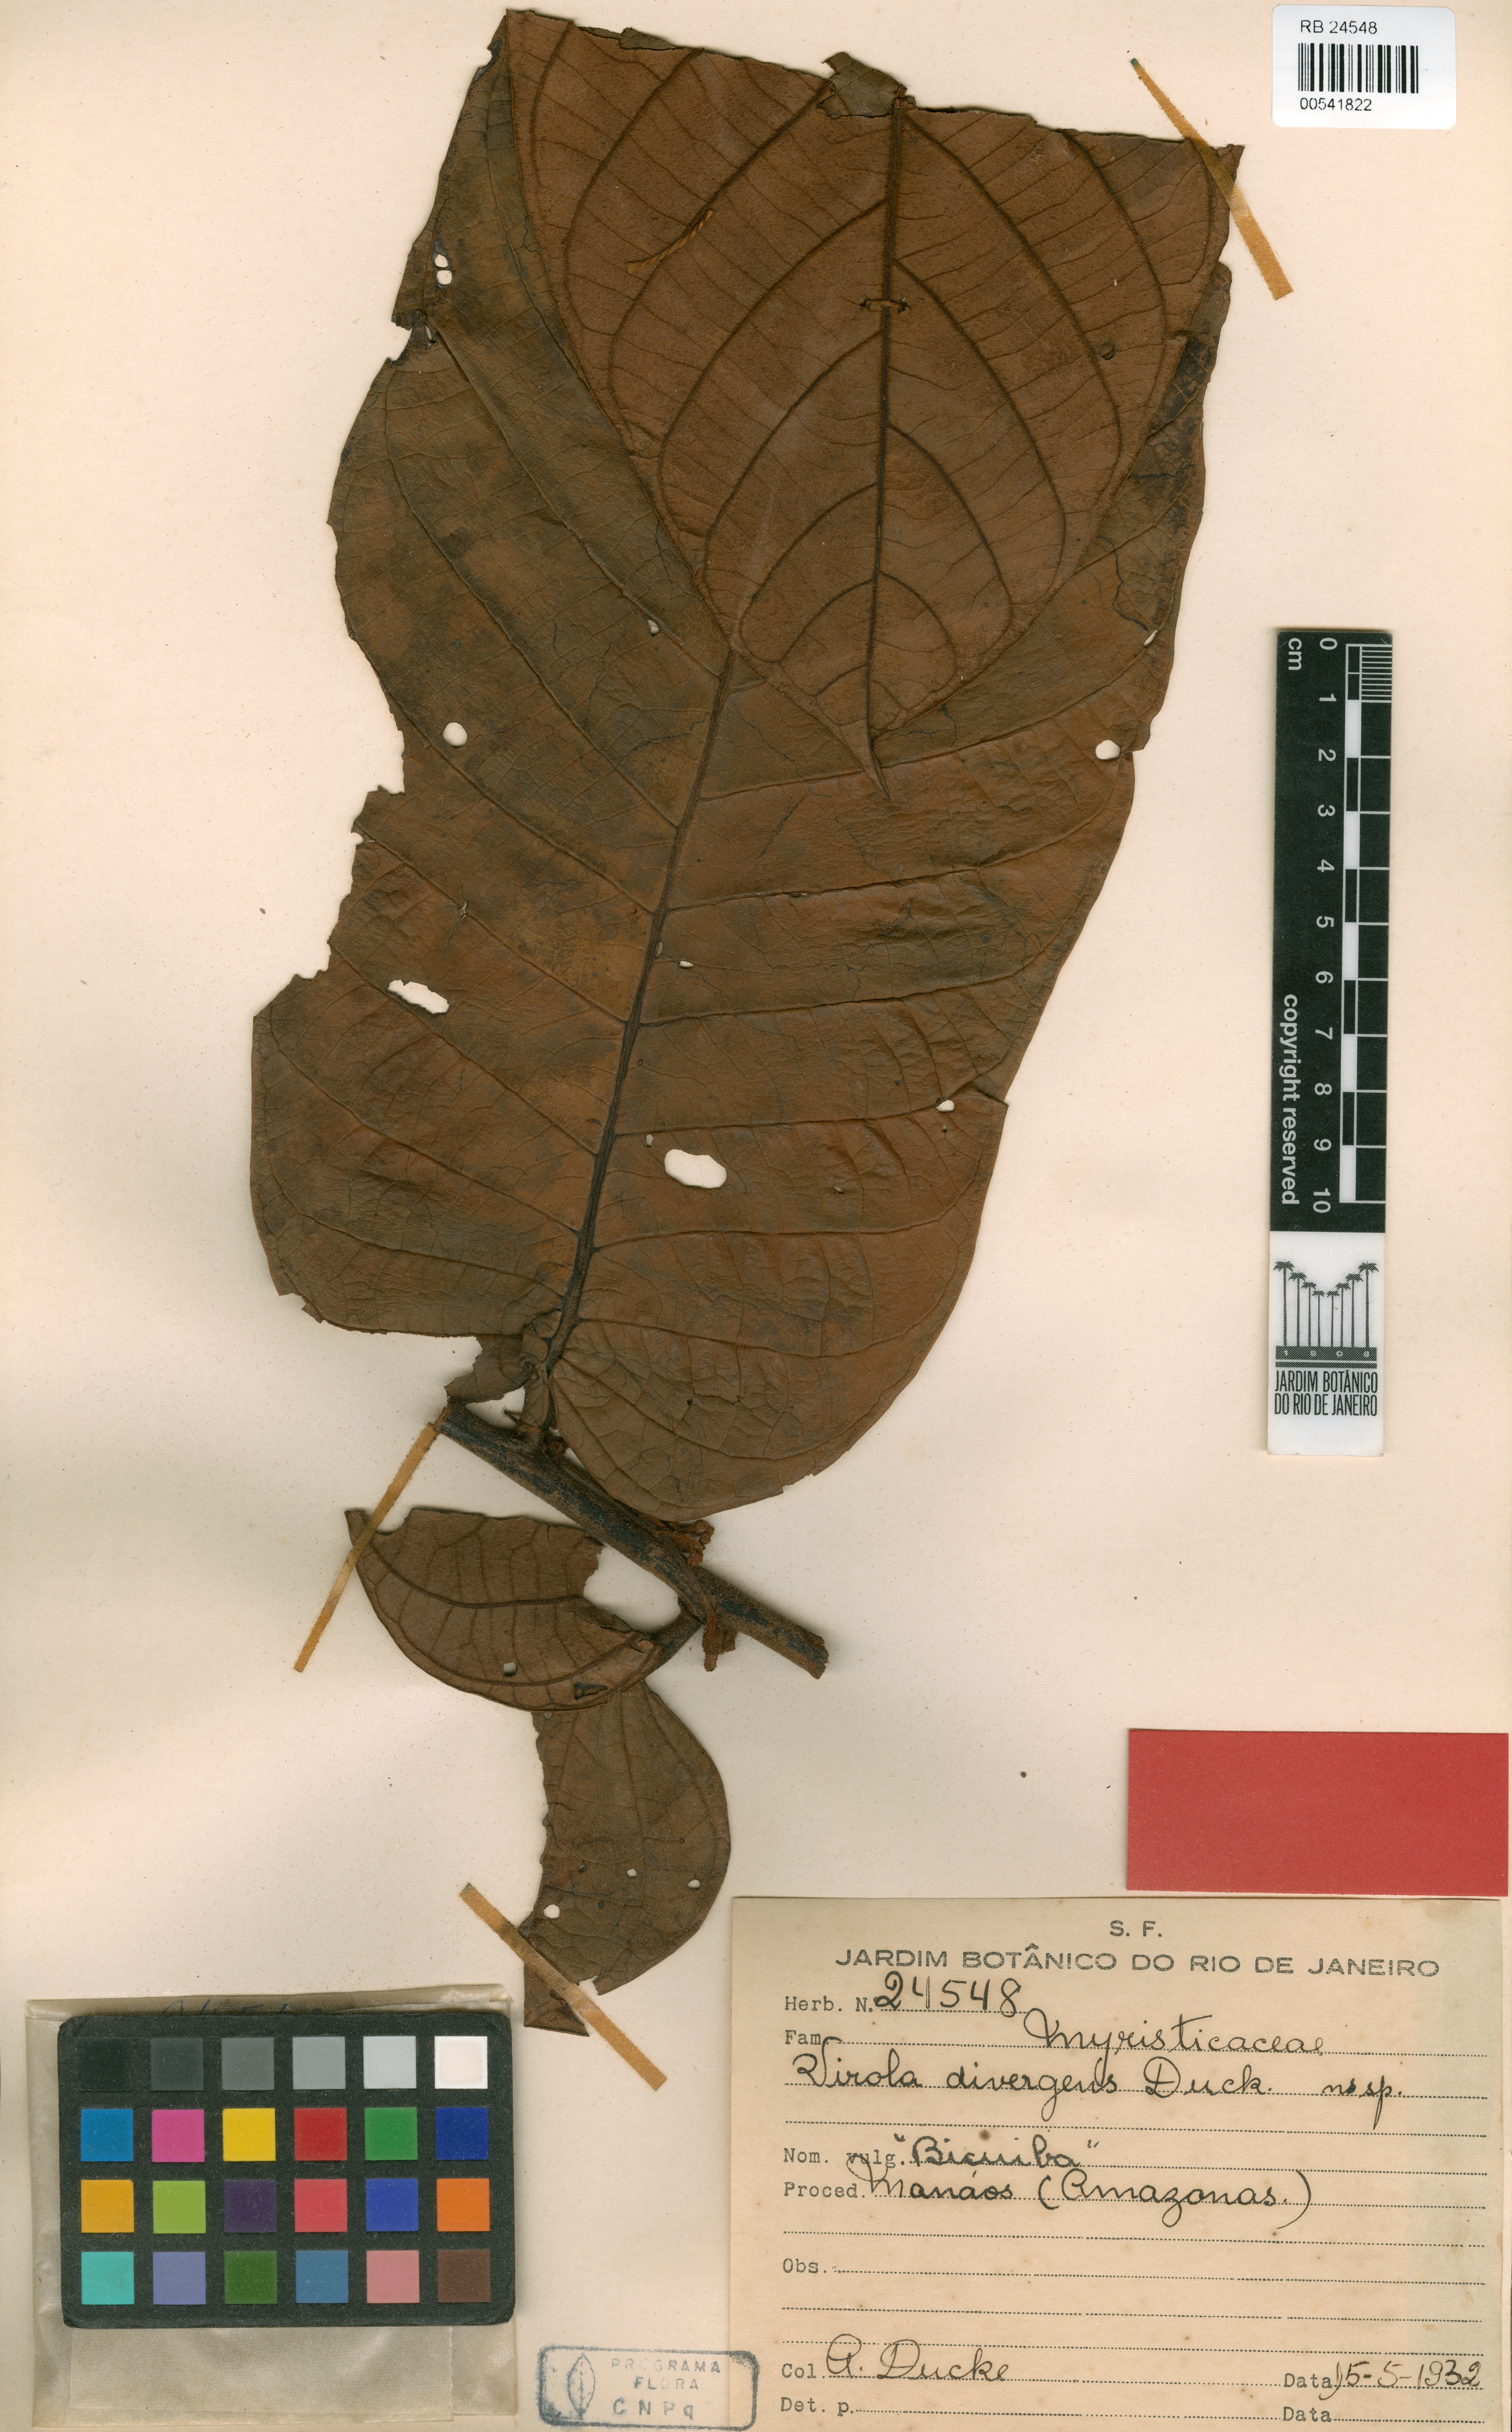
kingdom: Plantae
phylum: Tracheophyta
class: Magnoliopsida
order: Magnoliales
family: Myristicaceae
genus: Virola
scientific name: Virola divergens
